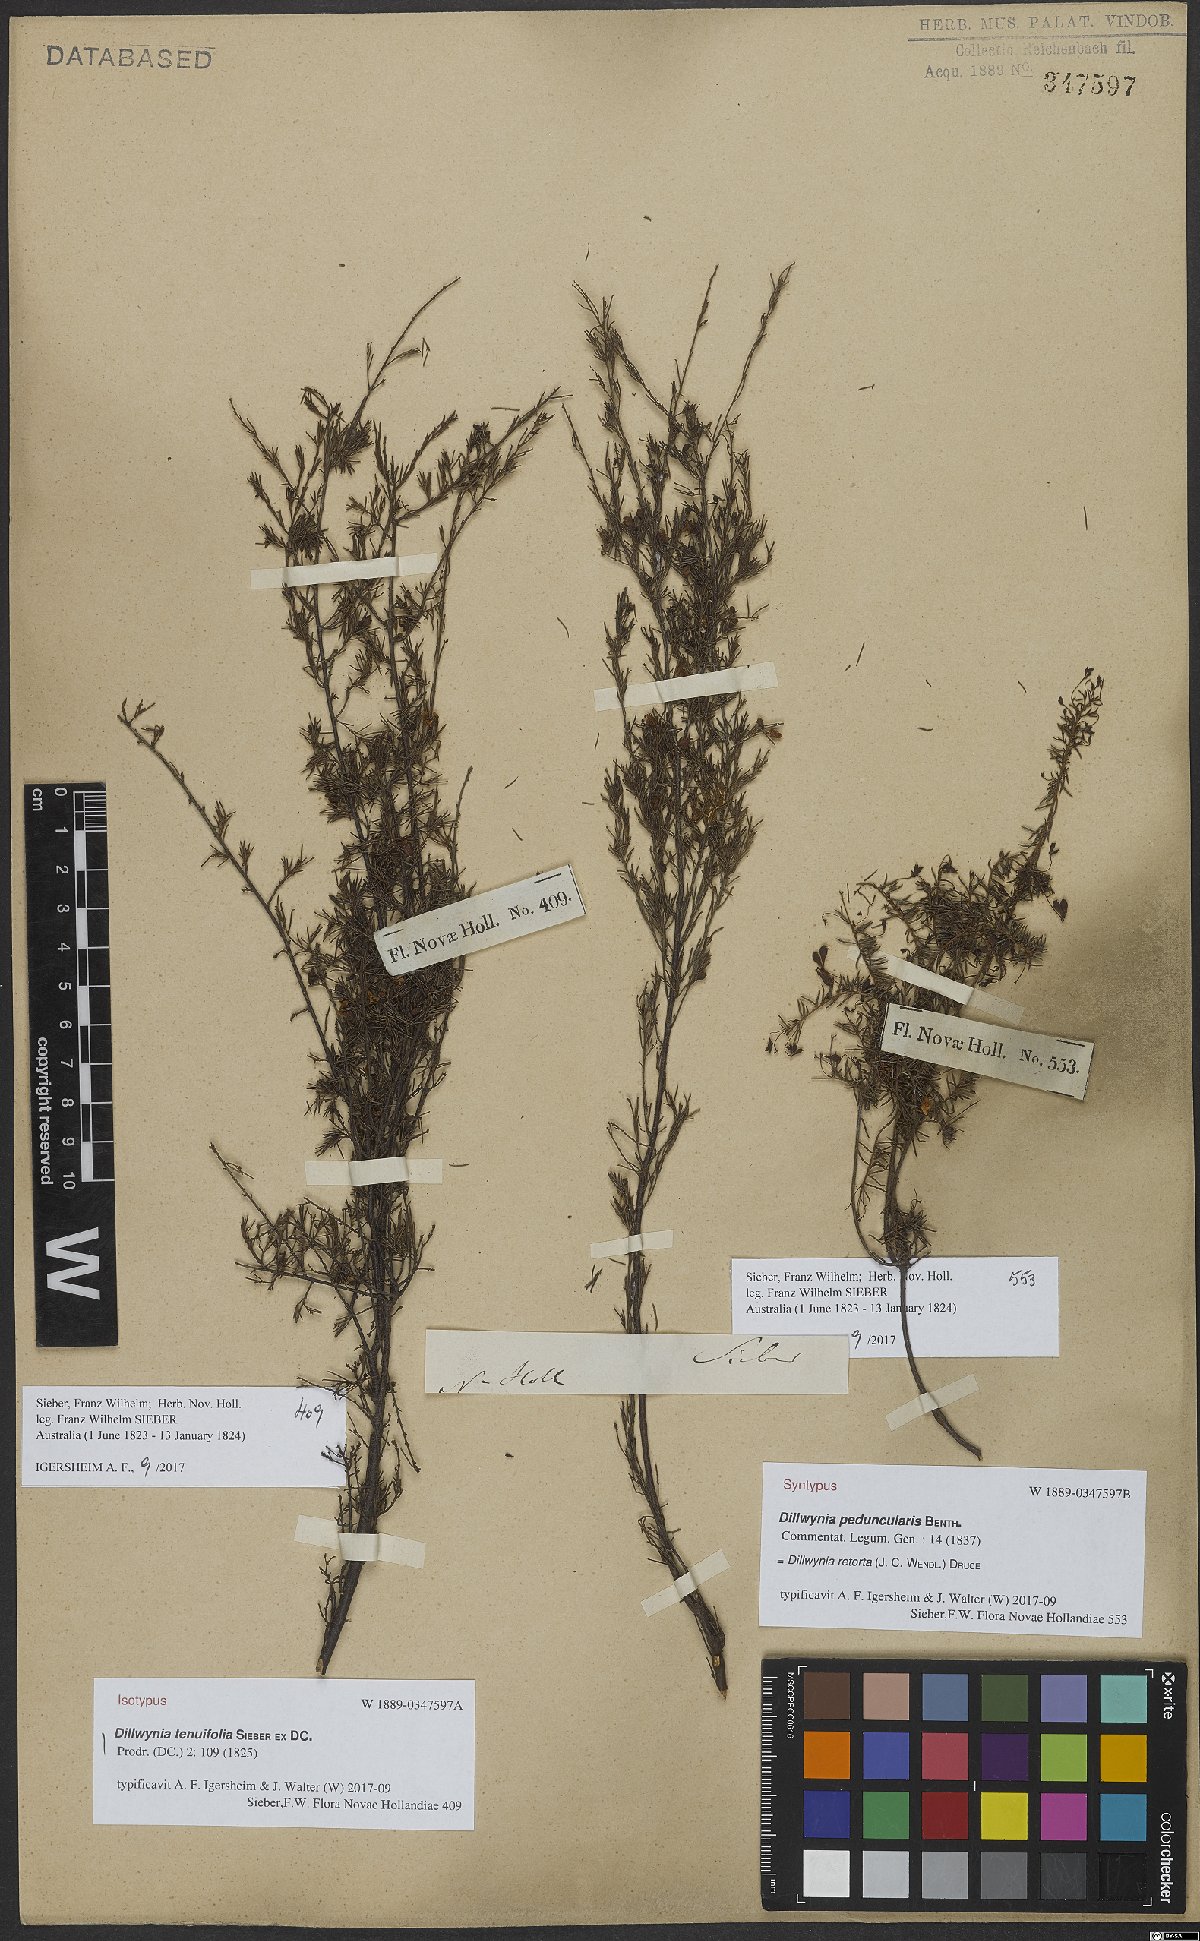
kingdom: Plantae
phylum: Tracheophyta
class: Magnoliopsida
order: Fabales
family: Fabaceae
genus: Dillwynia
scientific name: Dillwynia retorta
